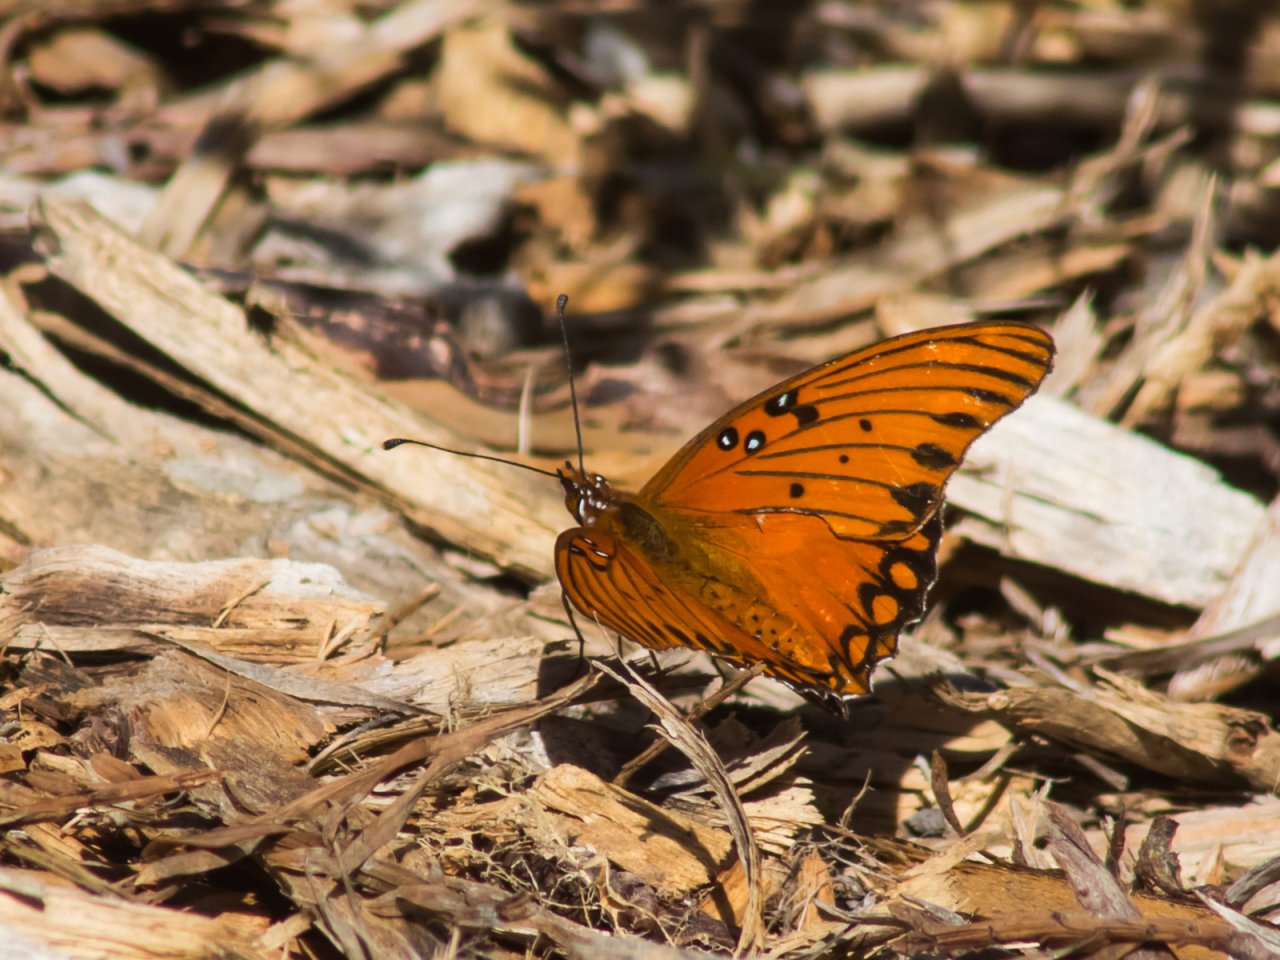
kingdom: Animalia
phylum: Arthropoda
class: Insecta
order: Lepidoptera
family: Nymphalidae
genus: Dione
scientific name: Dione vanillae
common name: Gulf Fritillary
